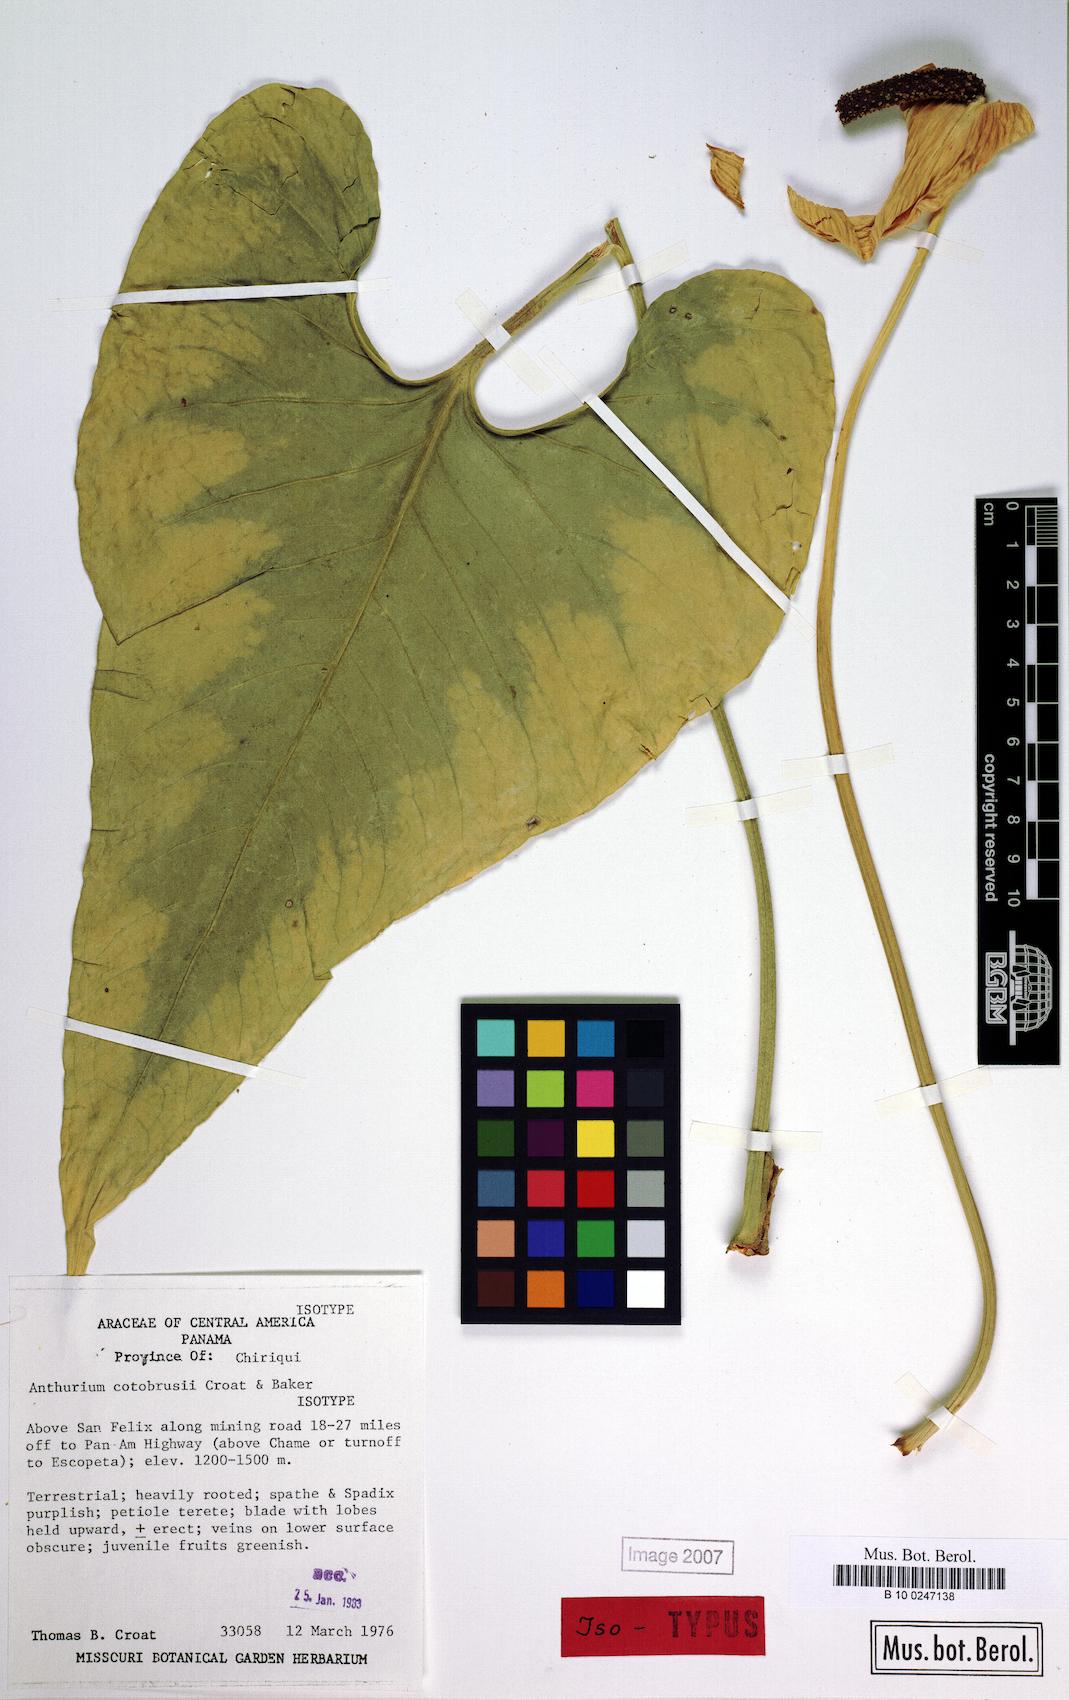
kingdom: Plantae
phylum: Tracheophyta
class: Liliopsida
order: Alismatales
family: Araceae
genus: Anthurium
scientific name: Anthurium cotobrusii
